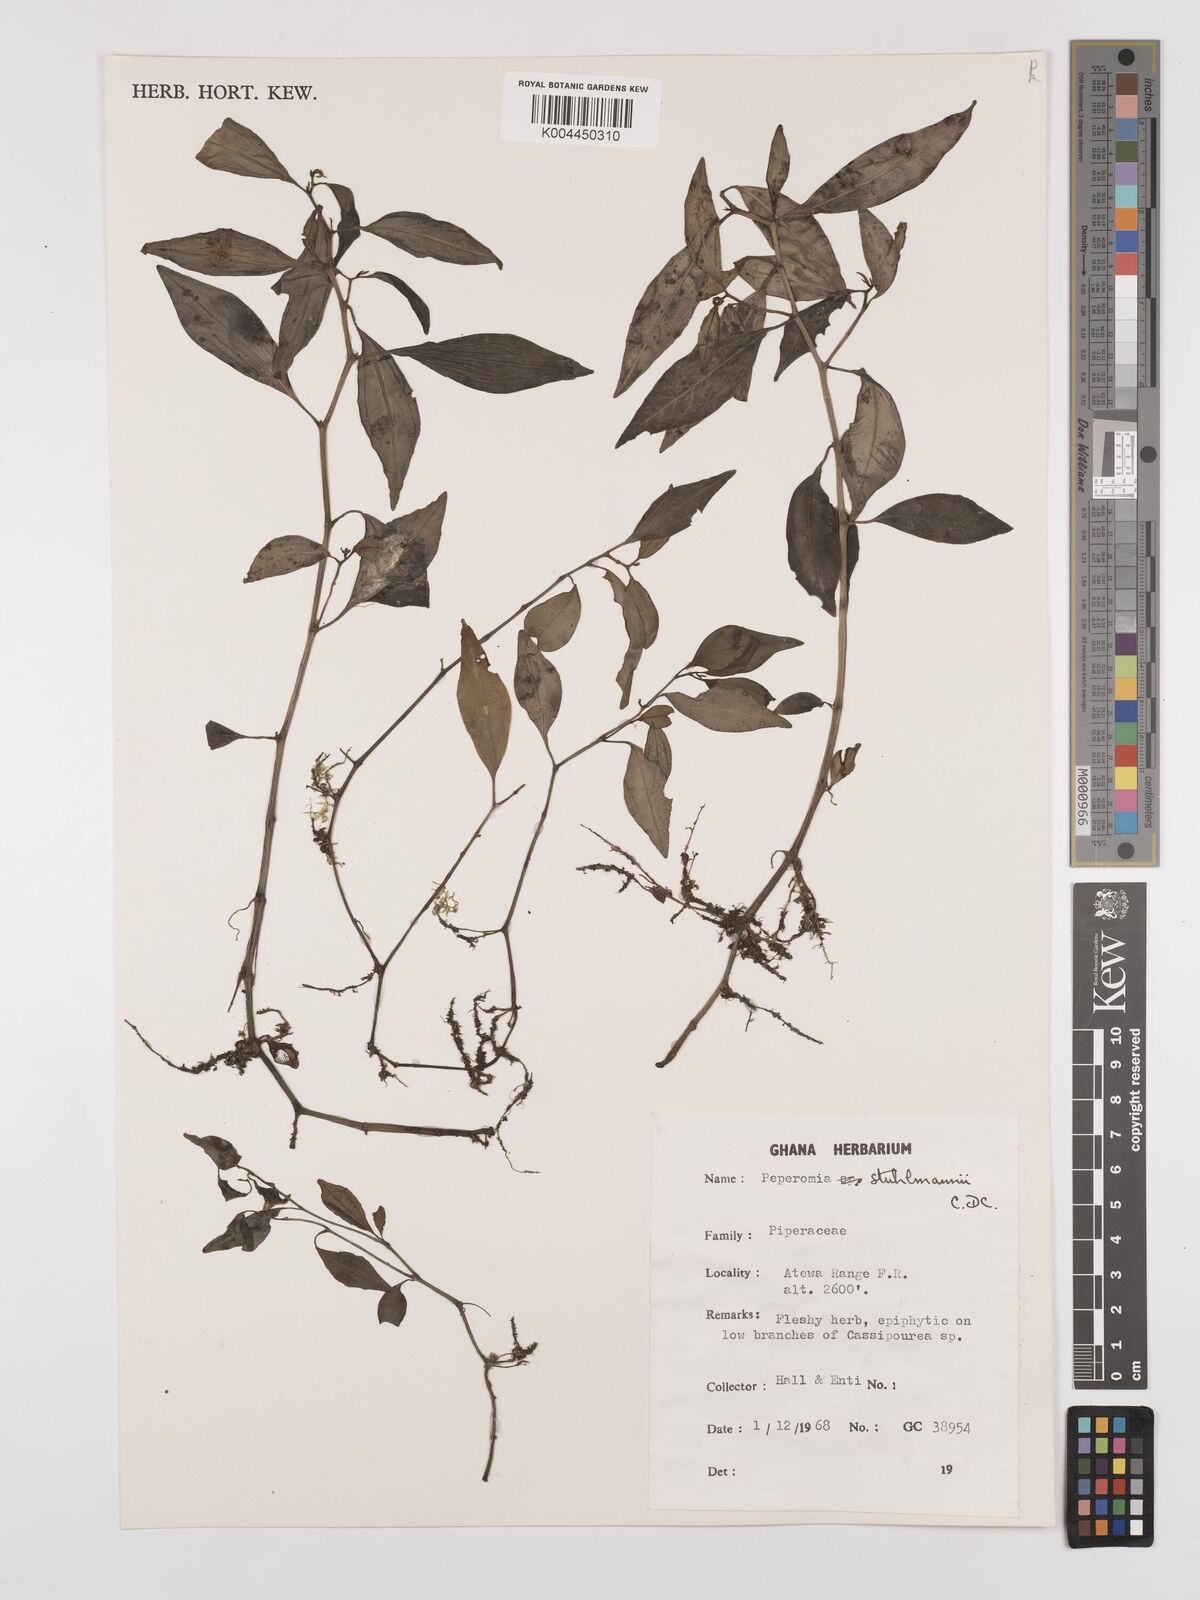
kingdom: Plantae
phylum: Tracheophyta
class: Magnoliopsida
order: Piperales
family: Piperaceae
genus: Peperomia
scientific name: Peperomia abyssinica
